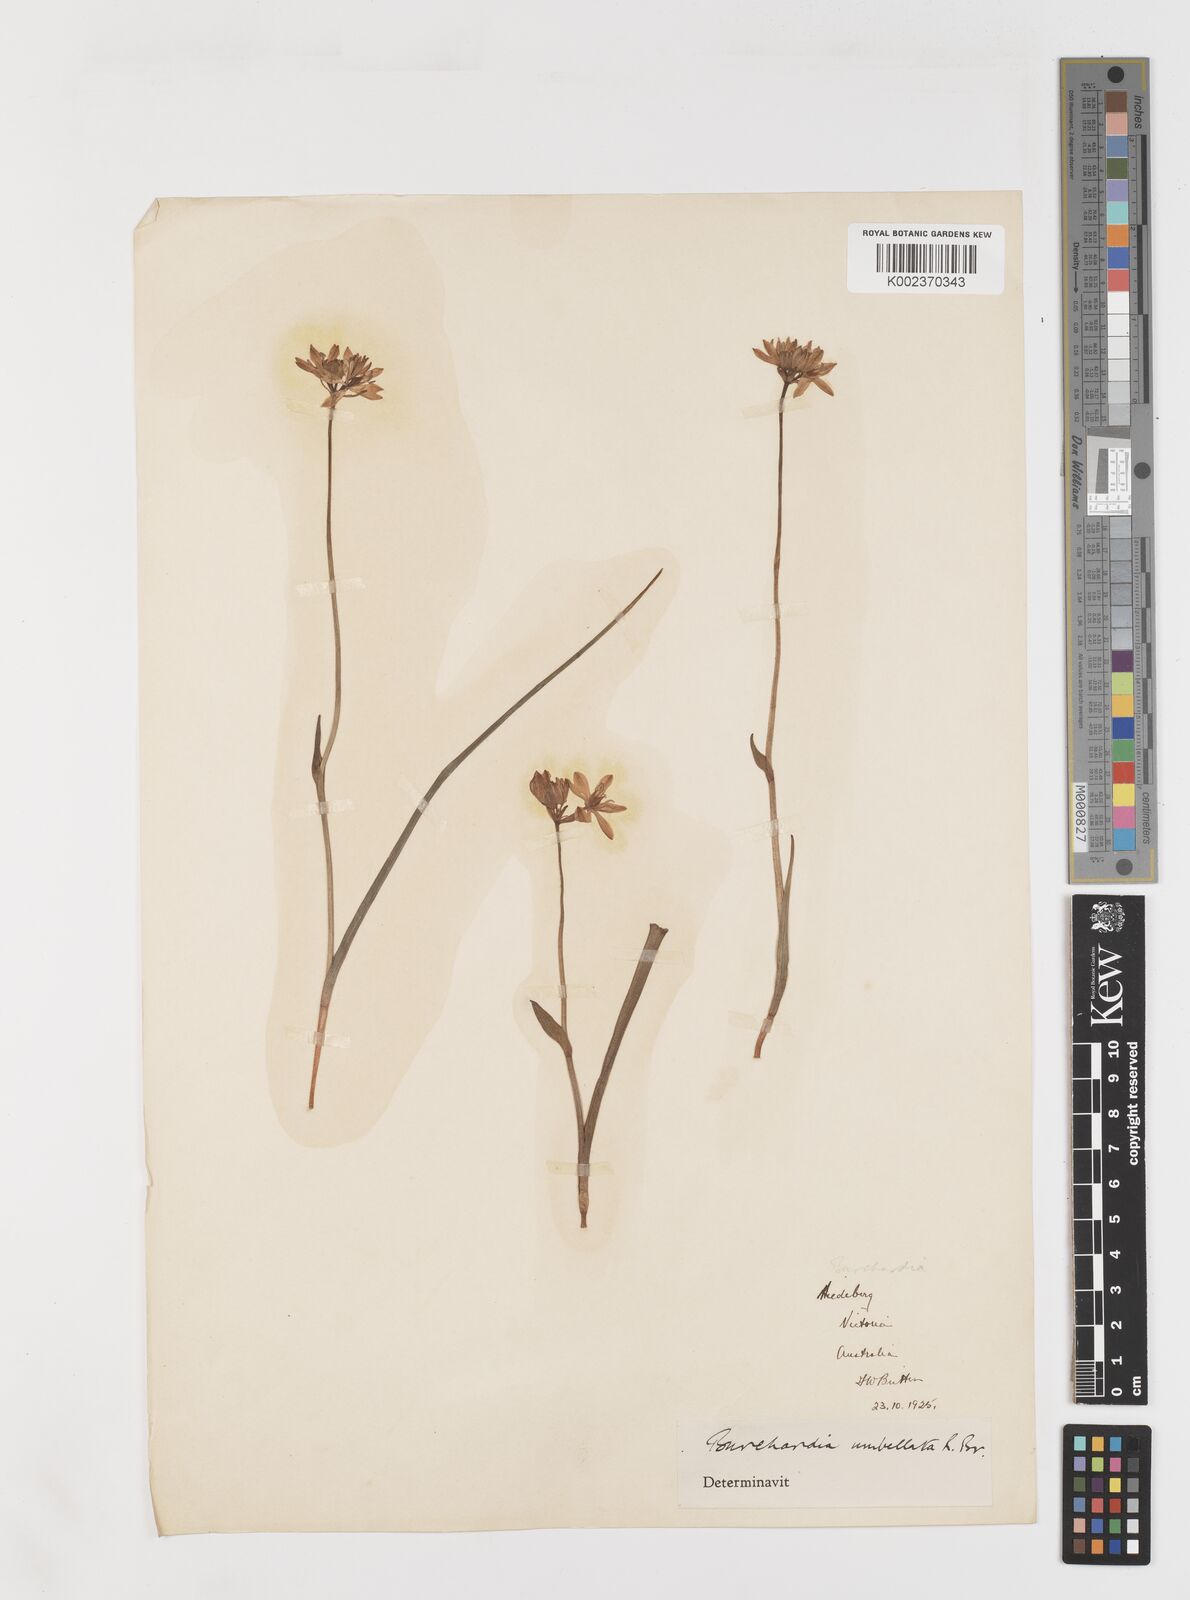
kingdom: Plantae
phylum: Tracheophyta
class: Liliopsida
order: Liliales
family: Colchicaceae
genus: Burchardia
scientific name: Burchardia umbellata
